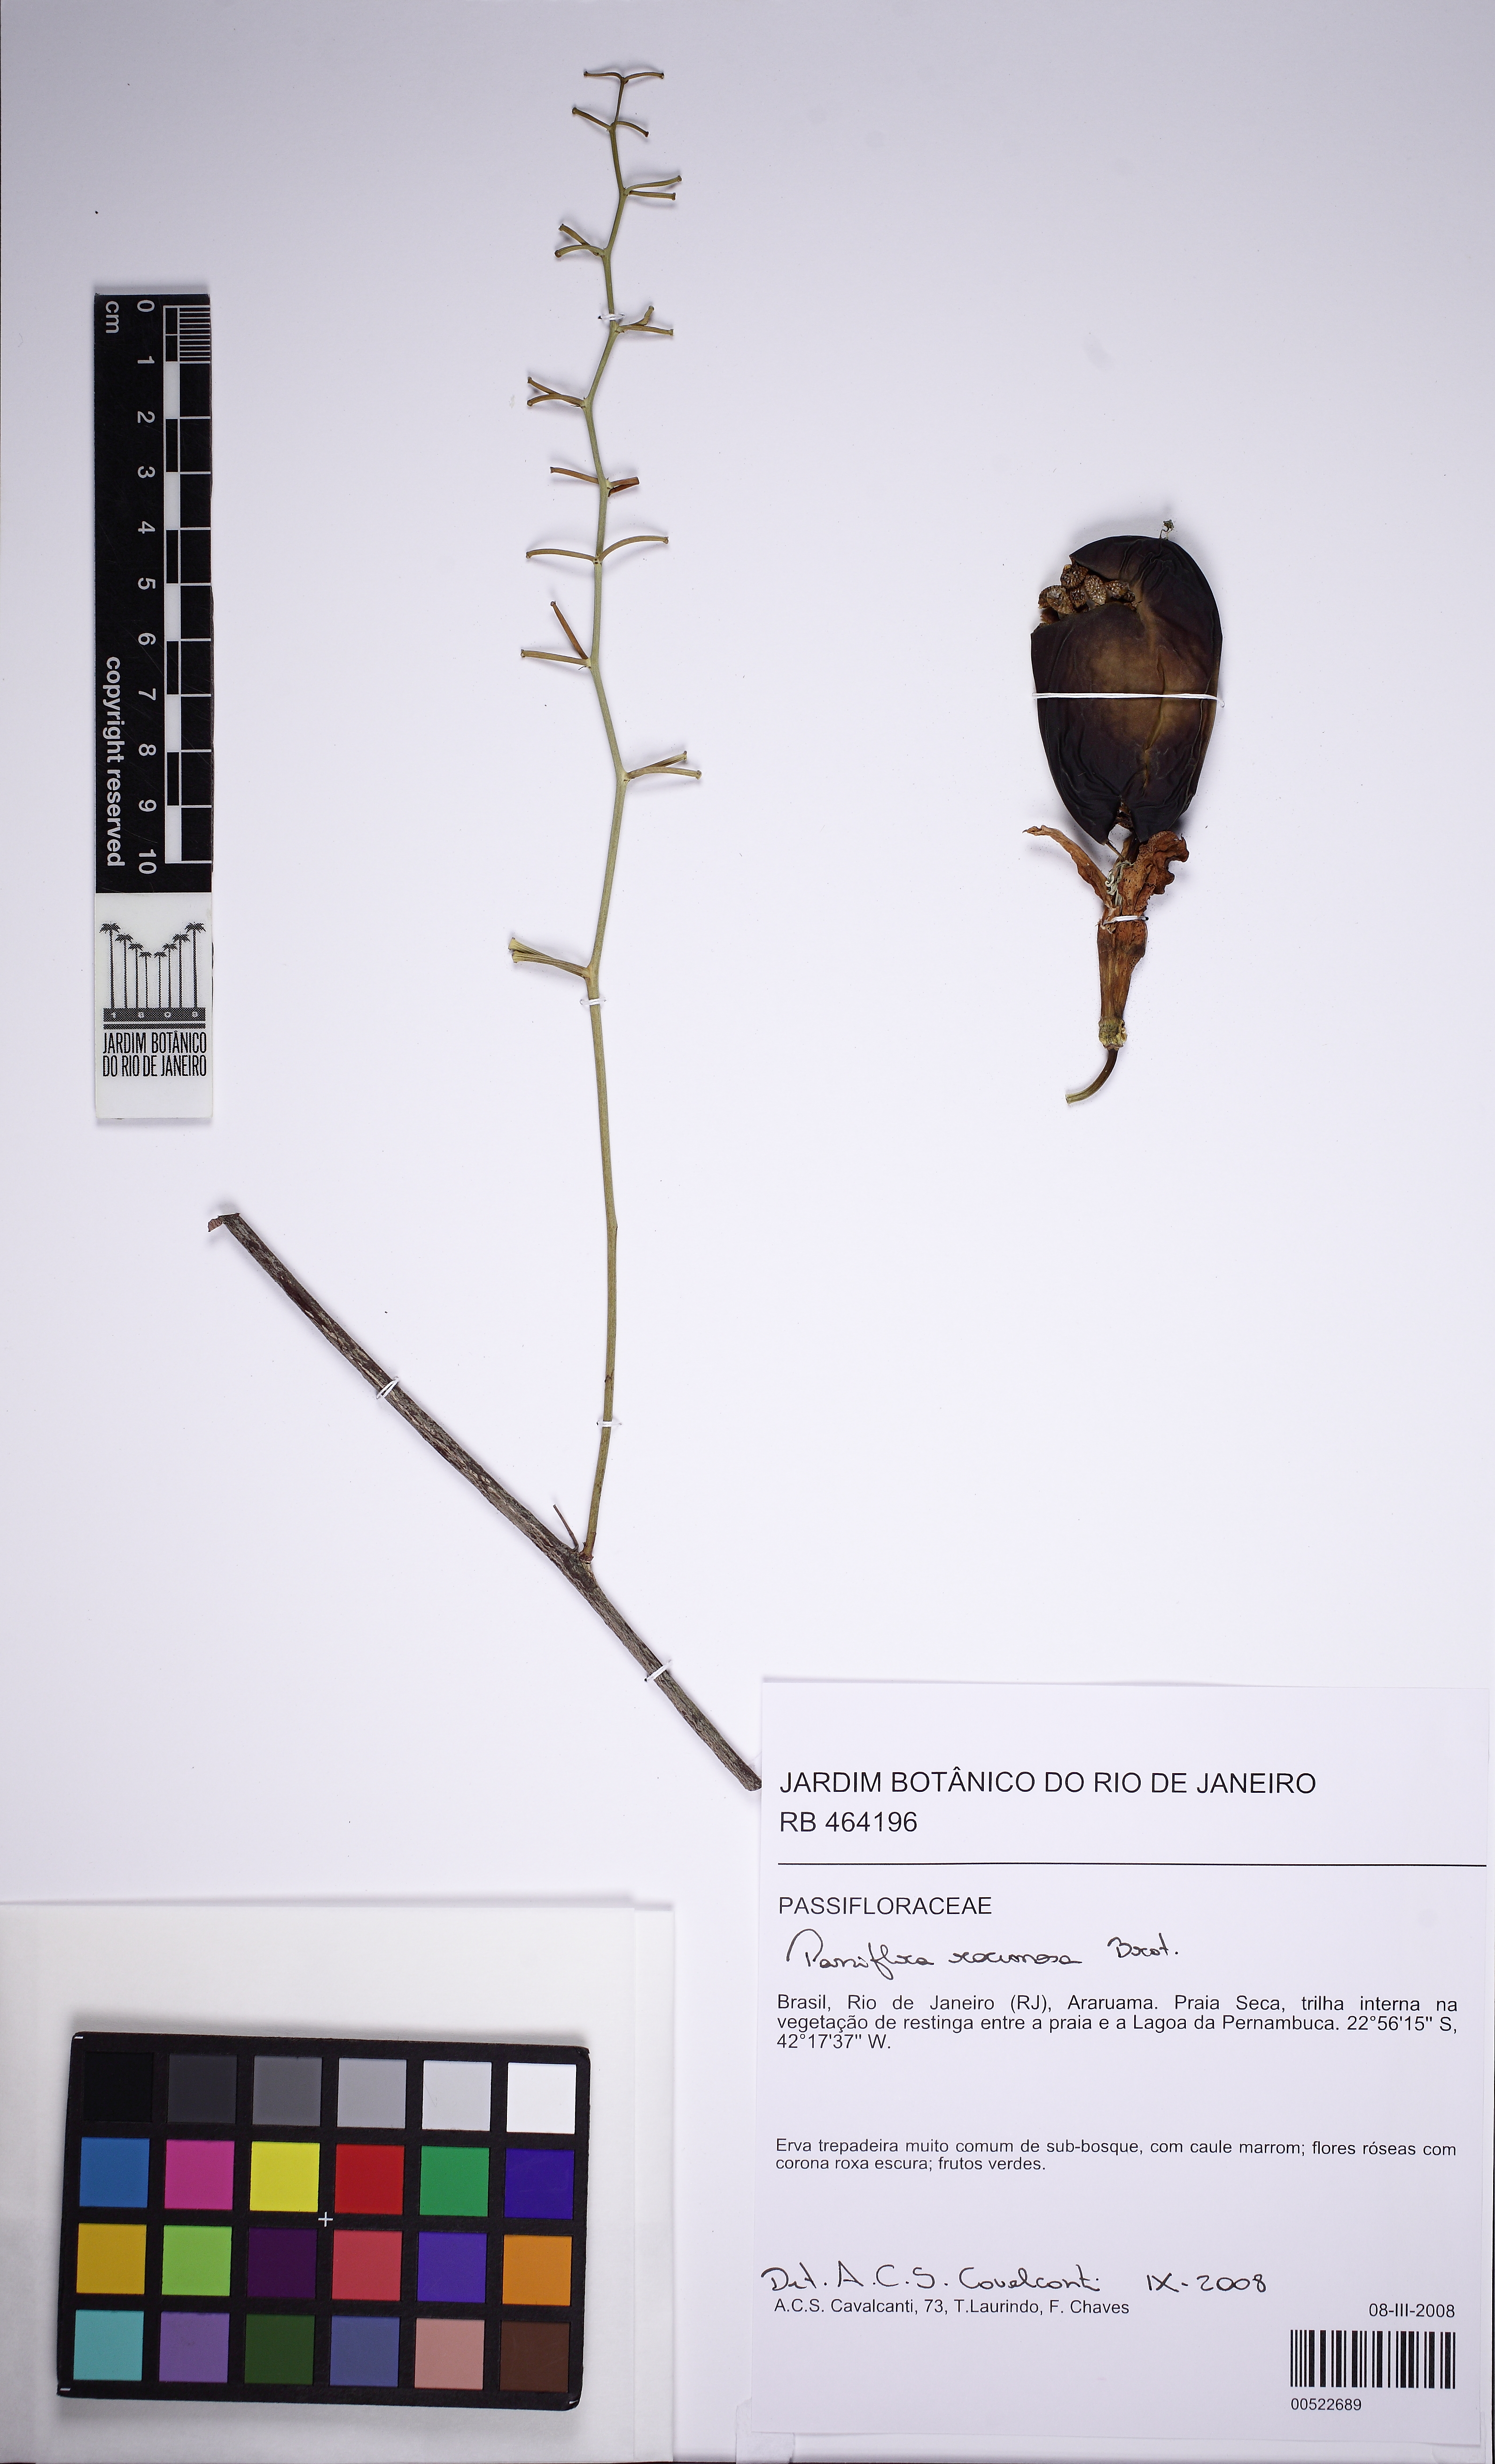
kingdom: Plantae
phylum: Tracheophyta
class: Magnoliopsida
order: Malpighiales
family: Passifloraceae
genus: Passiflora
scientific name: Passiflora racemosa
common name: Red passionflower
